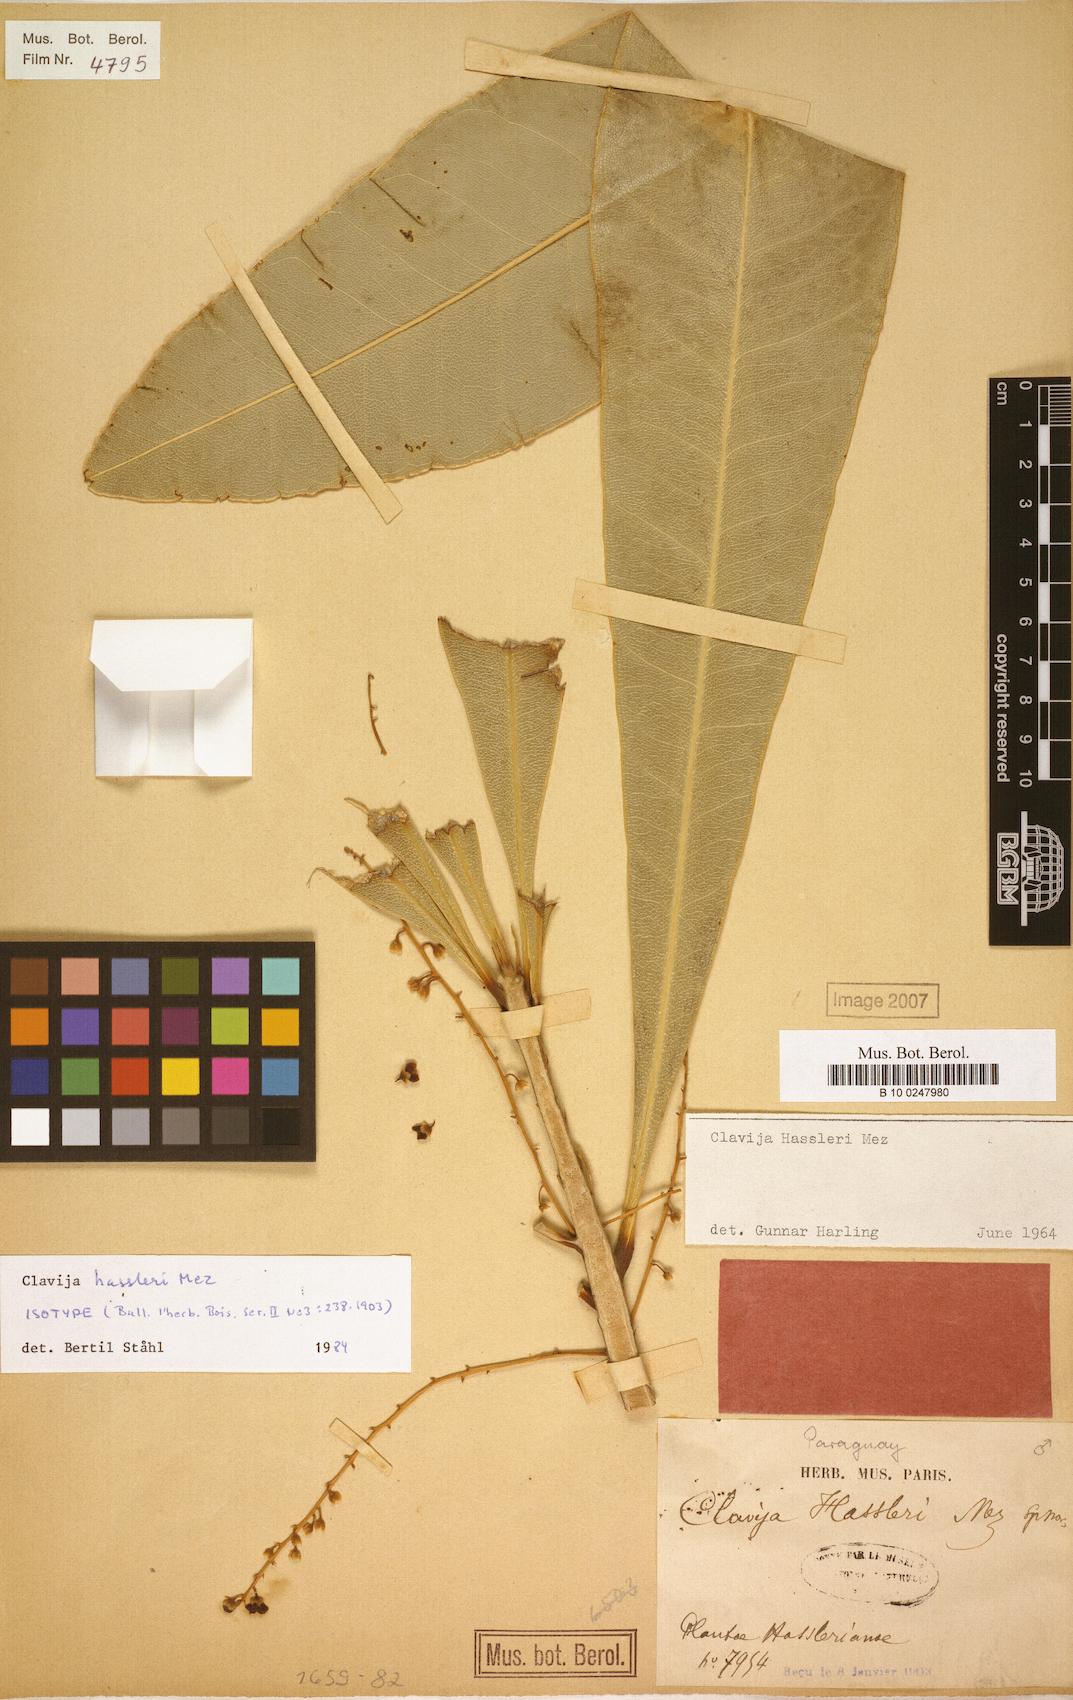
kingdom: Plantae
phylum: Tracheophyta
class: Magnoliopsida
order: Ericales
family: Primulaceae
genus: Clavija
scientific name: Clavija nutans
